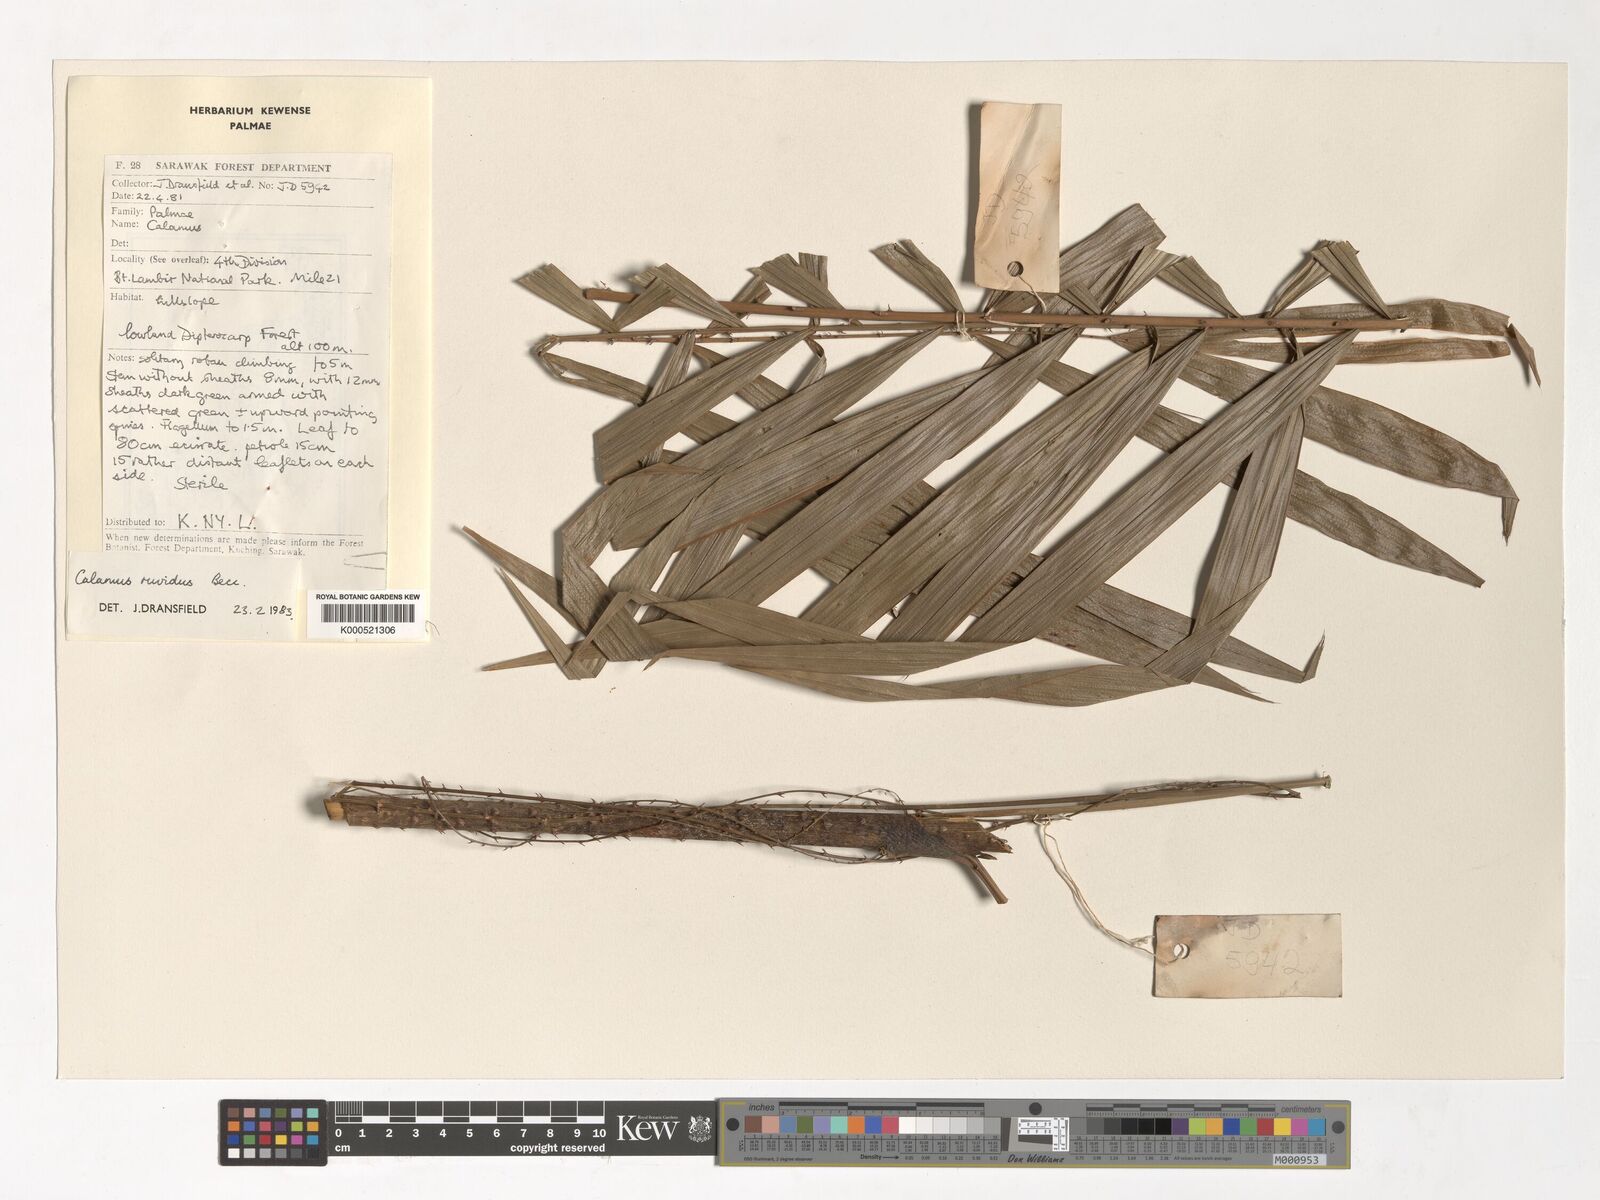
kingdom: Plantae
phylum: Tracheophyta
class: Liliopsida
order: Arecales
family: Arecaceae
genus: Calamus
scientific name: Calamus ruvidus
